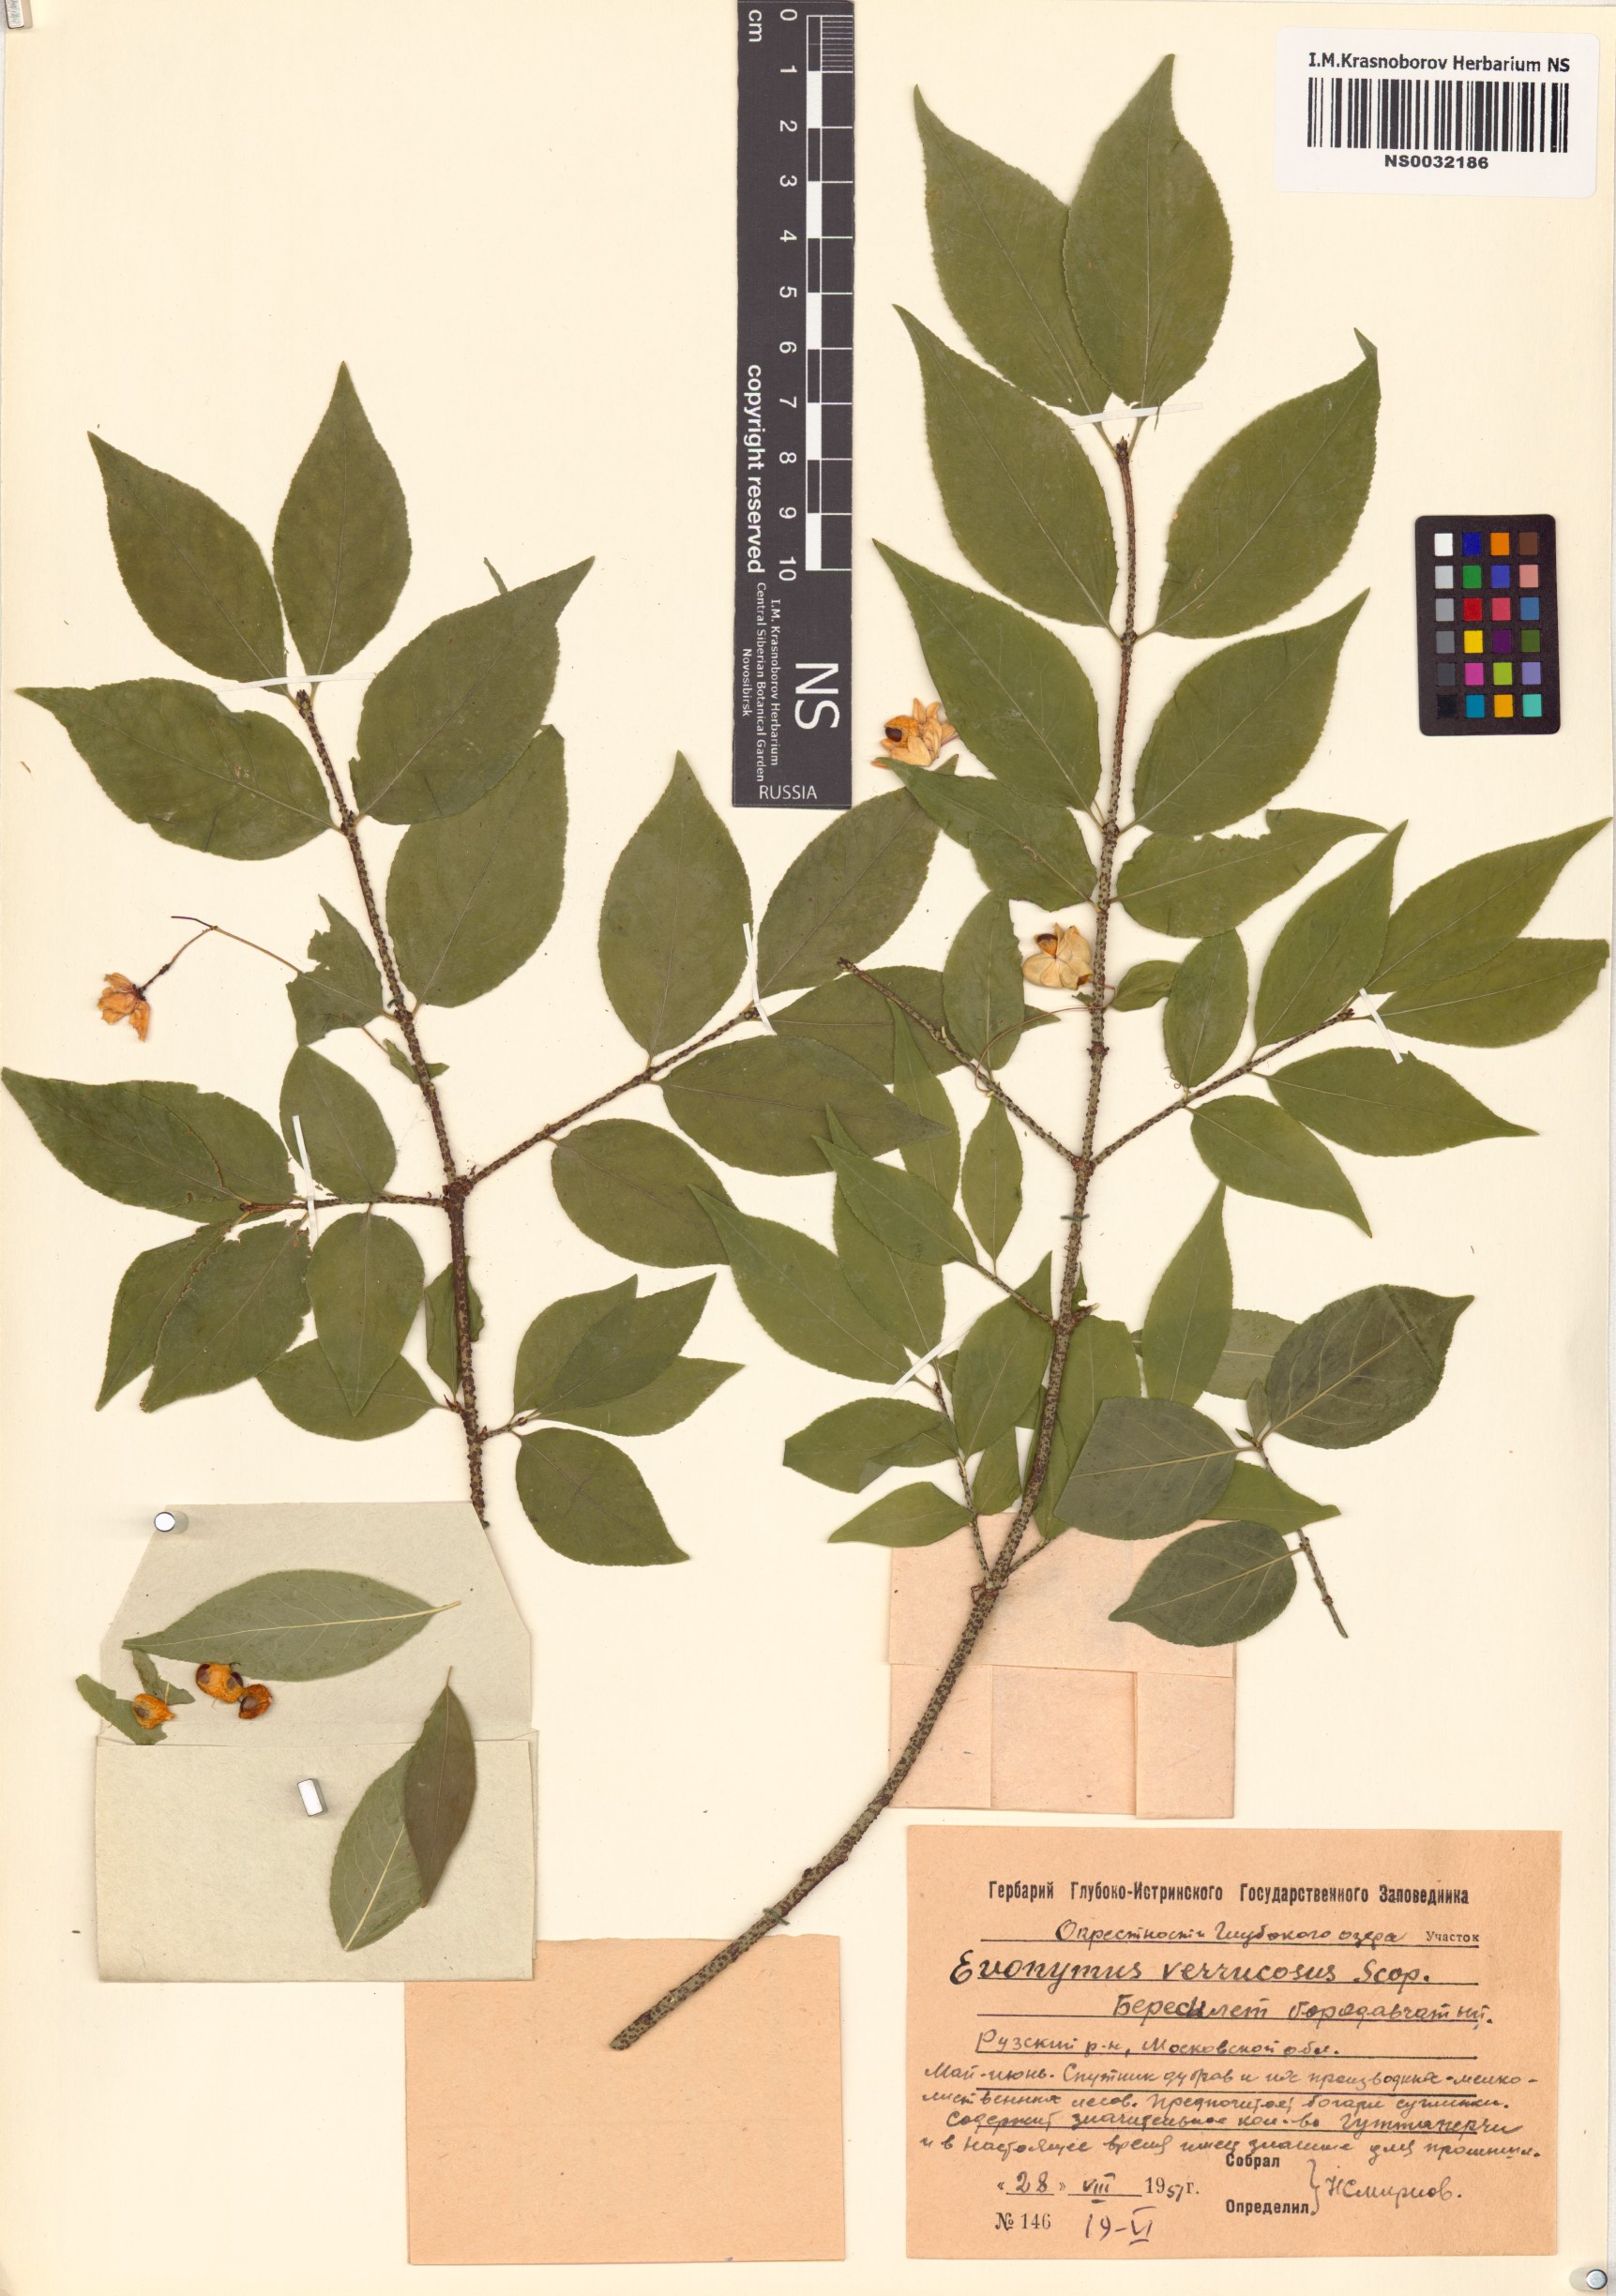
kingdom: Plantae
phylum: Tracheophyta
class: Magnoliopsida
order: Celastrales
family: Celastraceae
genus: Euonymus
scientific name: Euonymus verrucosus
